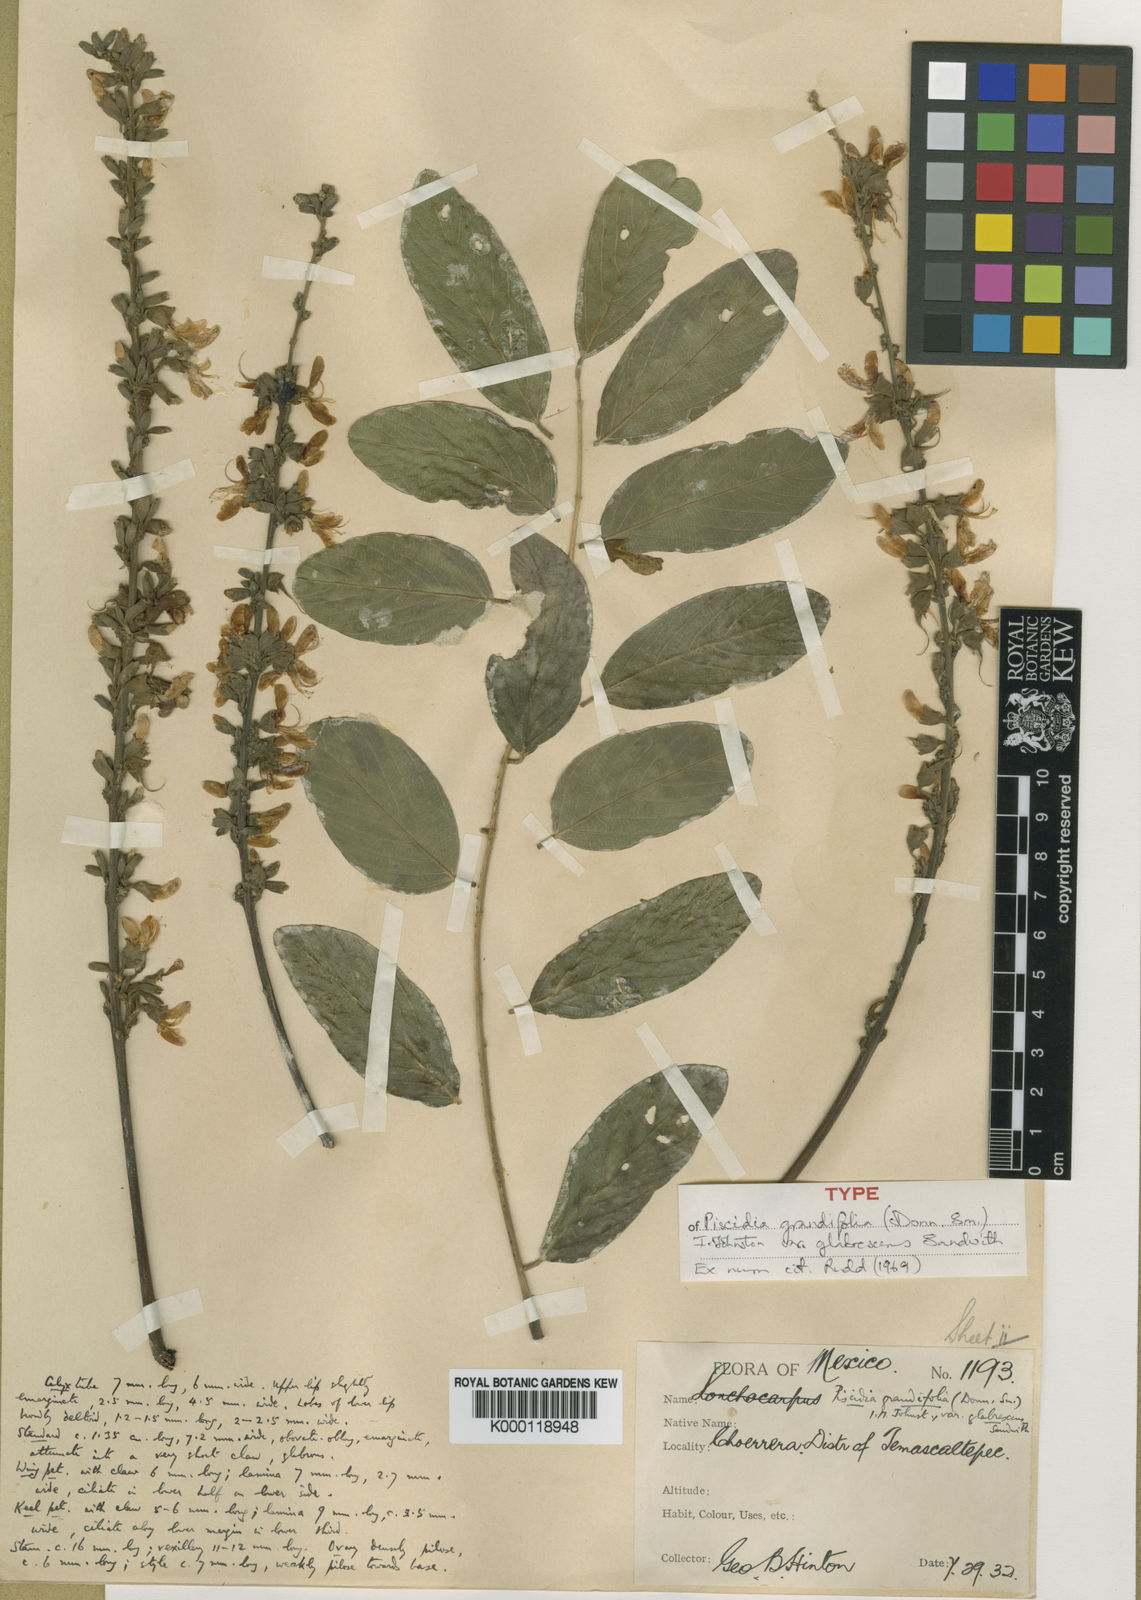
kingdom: Plantae
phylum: Tracheophyta
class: Magnoliopsida
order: Fabales
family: Fabaceae
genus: Piscidia
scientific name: Piscidia grandifolia
